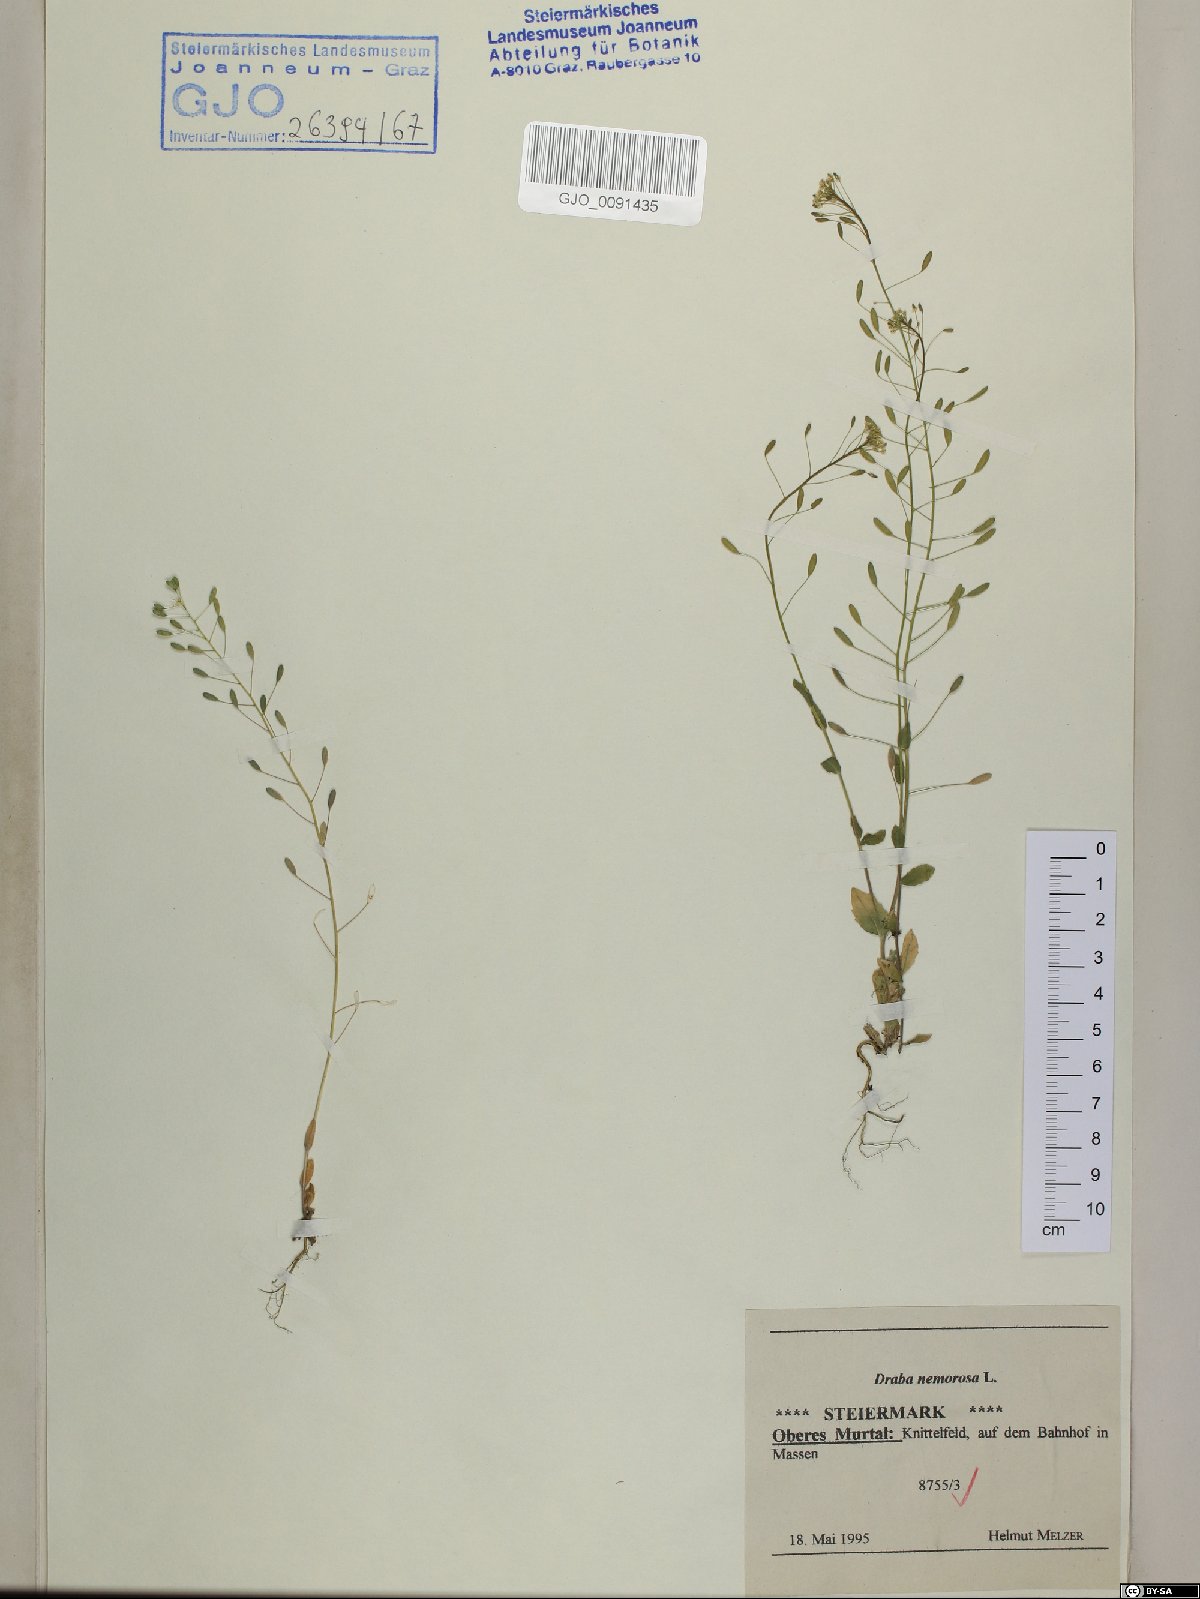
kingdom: Plantae
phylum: Tracheophyta
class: Magnoliopsida
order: Brassicales
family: Brassicaceae
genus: Draba
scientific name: Draba nemorosa
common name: Wood whitlow-grass
